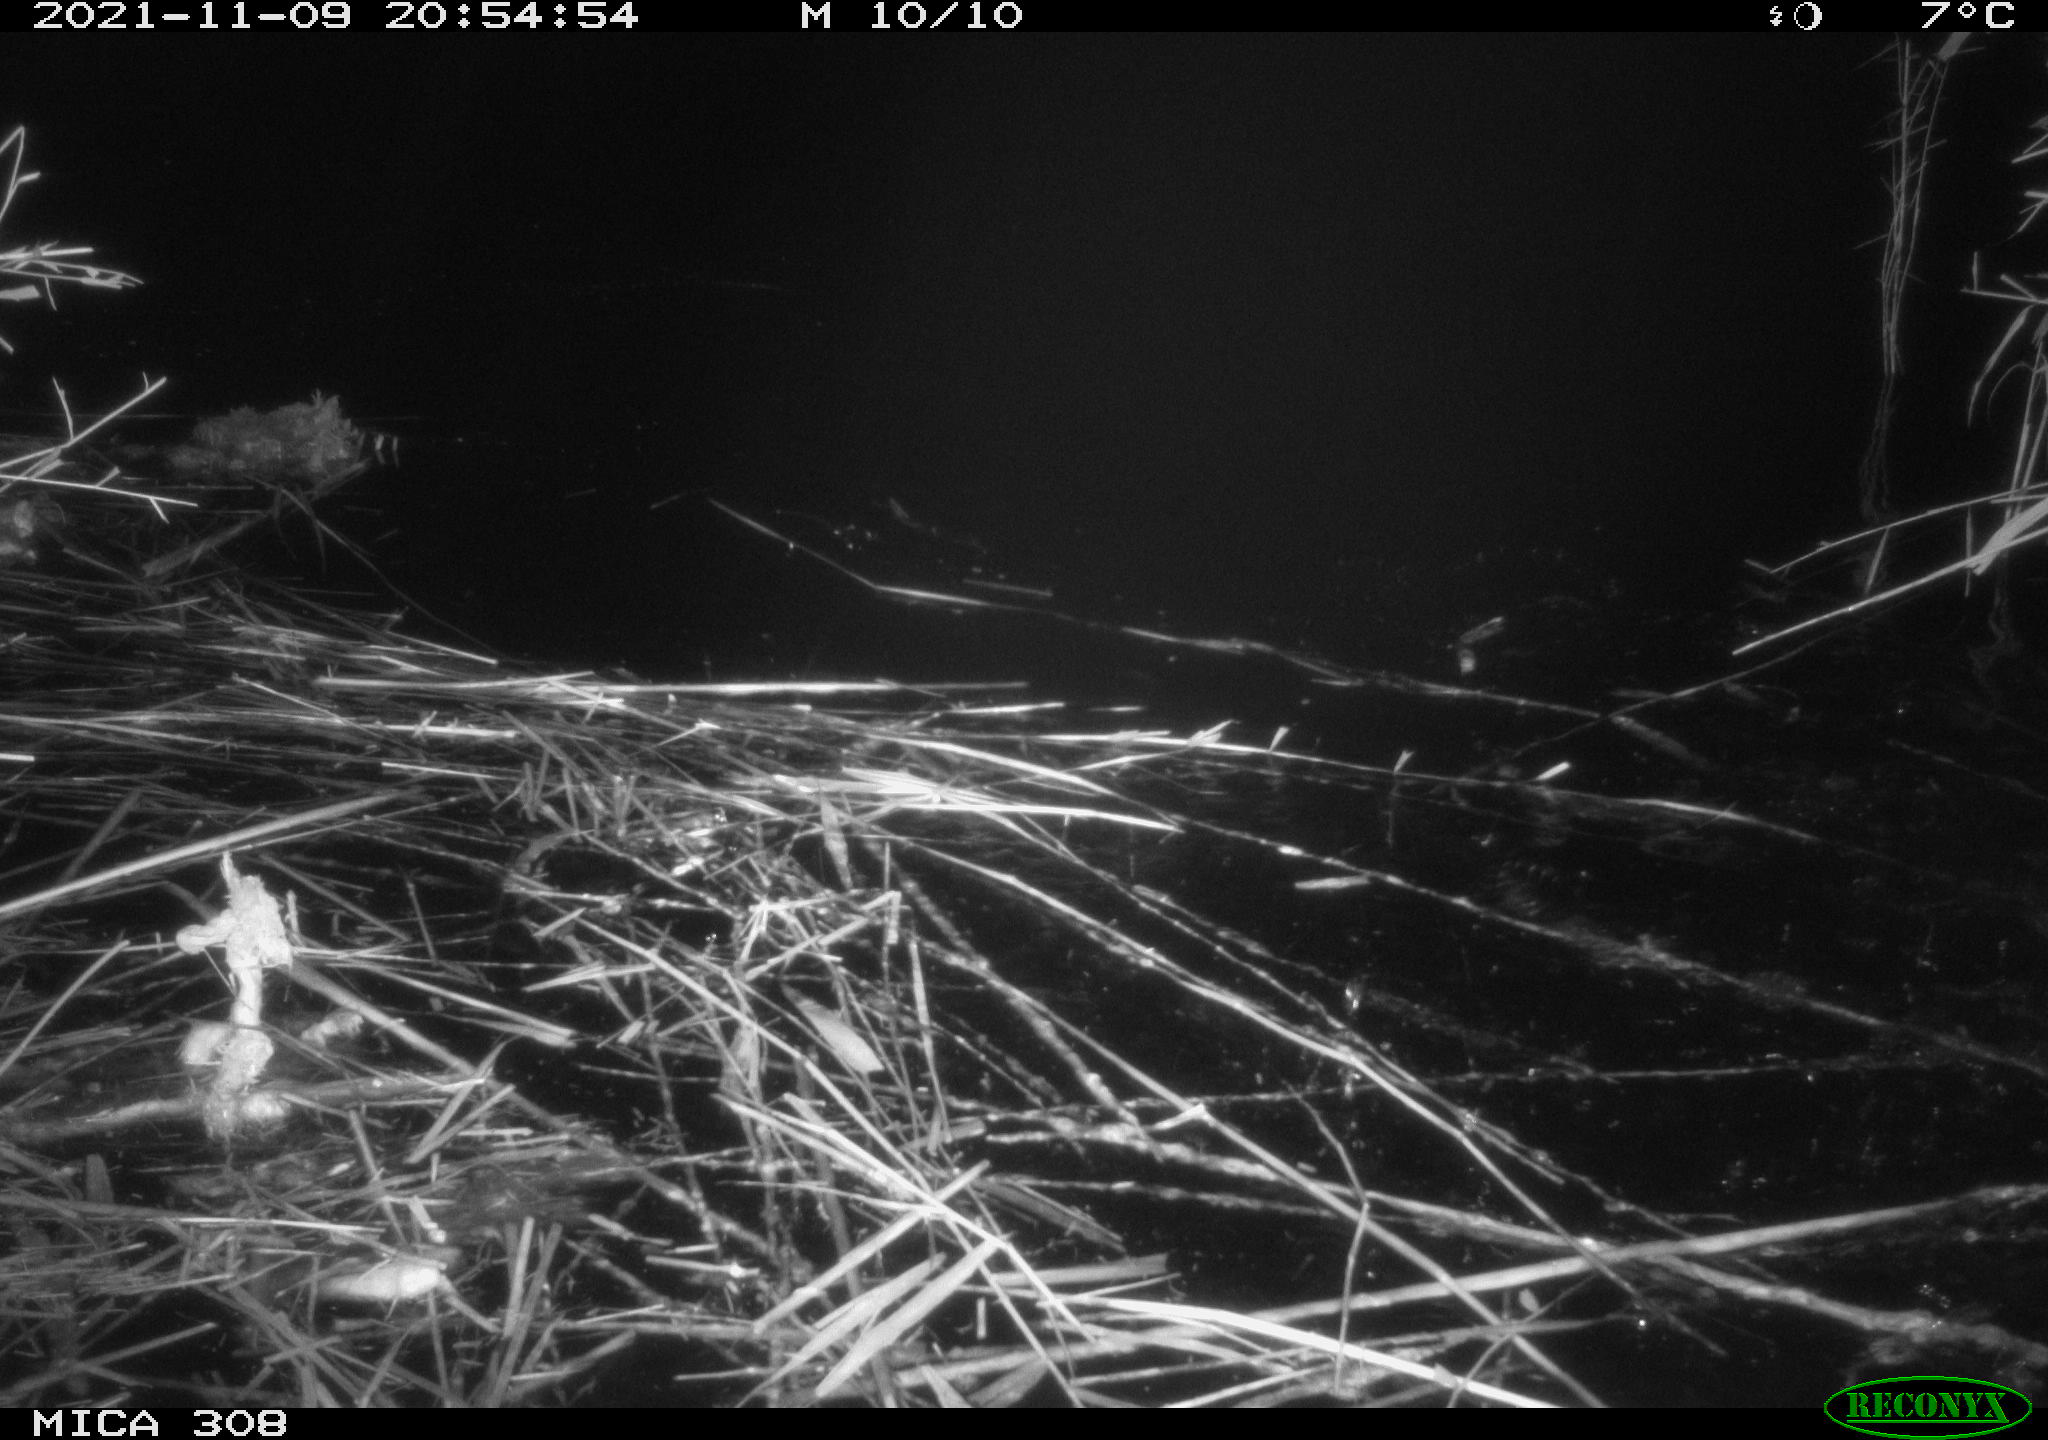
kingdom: Animalia
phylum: Chordata
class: Aves
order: Gruiformes
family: Rallidae
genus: Fulica
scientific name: Fulica atra
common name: Eurasian coot
